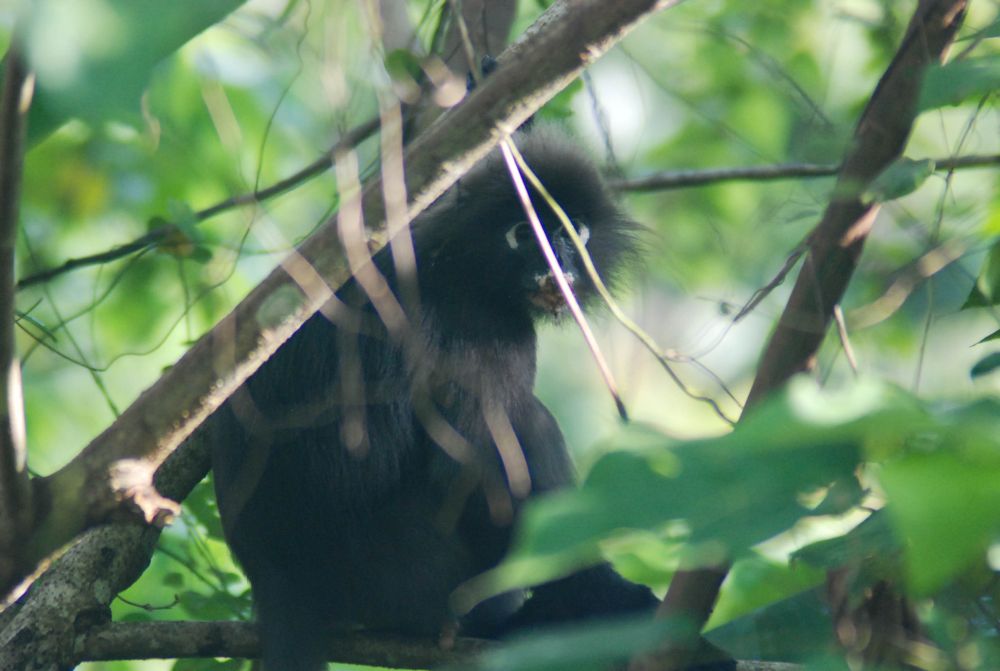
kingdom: Animalia
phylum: Chordata
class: Mammalia
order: Primates
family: Cercopithecidae
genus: Trachypithecus
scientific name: Trachypithecus obscurus
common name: Dusky leaf-monkey
